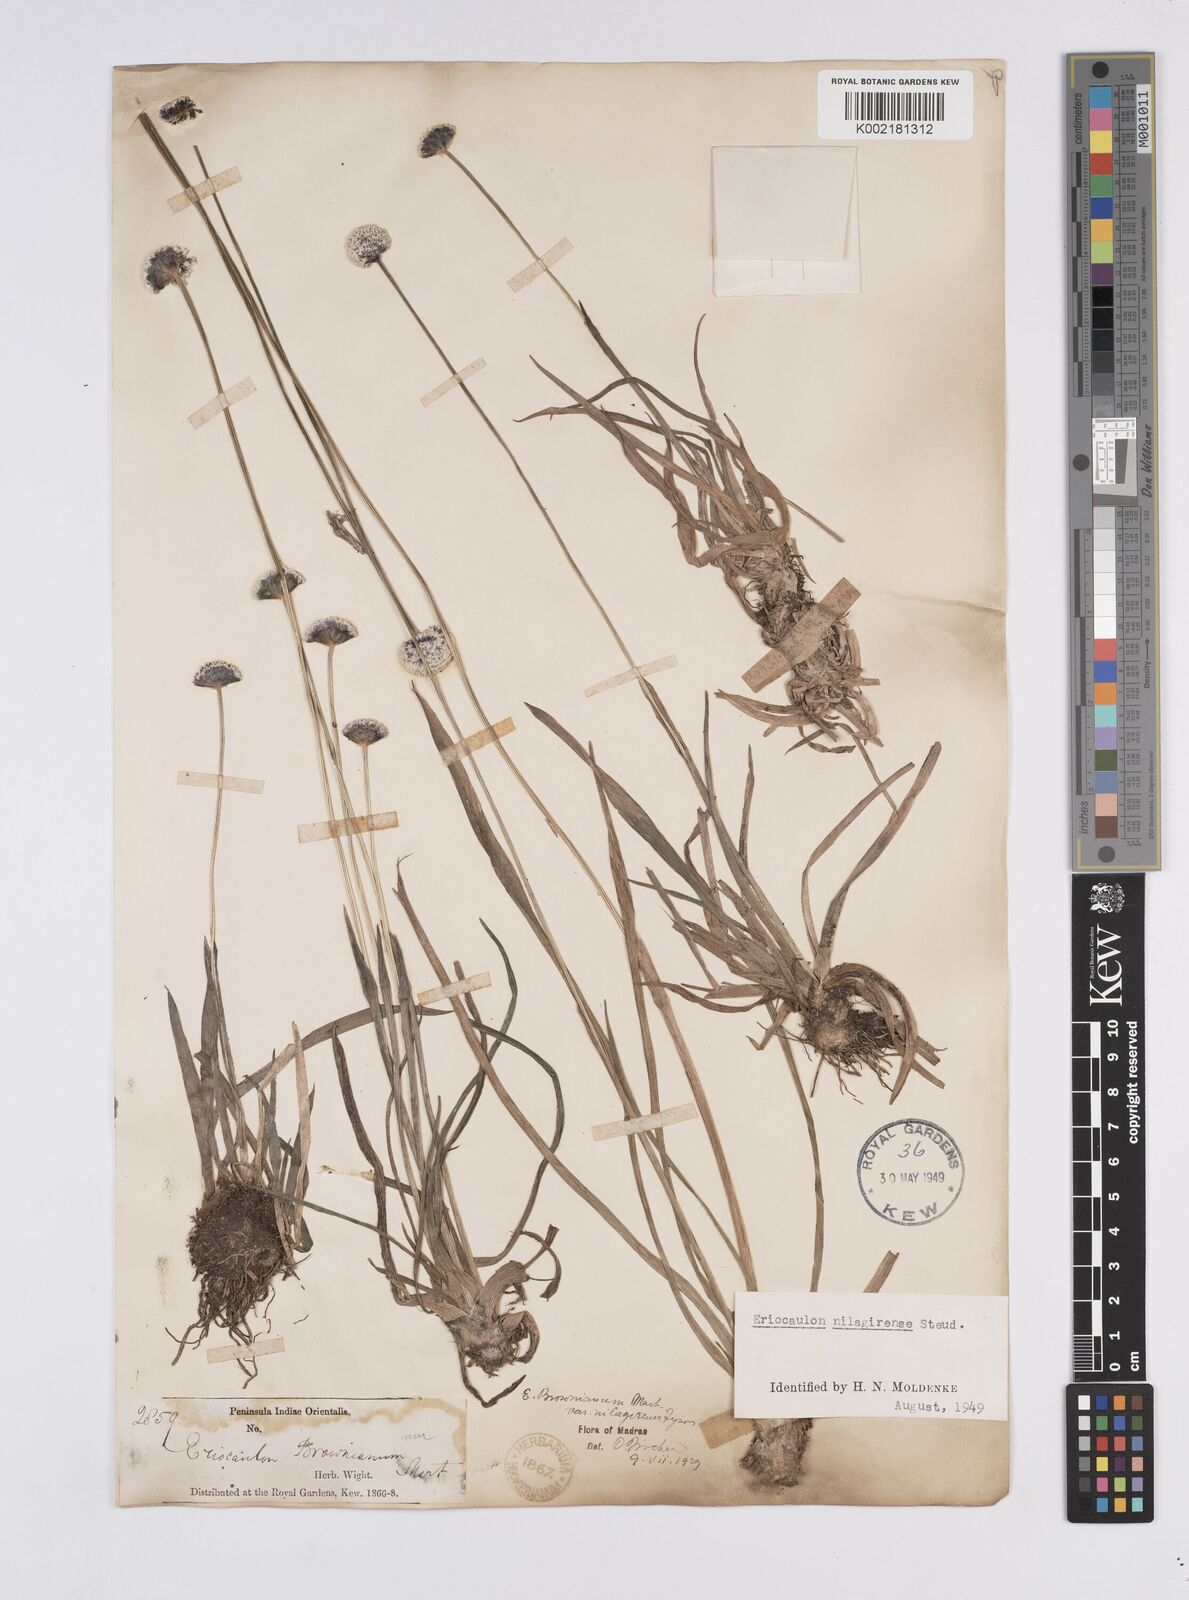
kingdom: Plantae
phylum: Tracheophyta
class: Liliopsida
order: Poales
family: Eriocaulaceae
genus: Eriocaulon
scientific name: Eriocaulon brownianum
